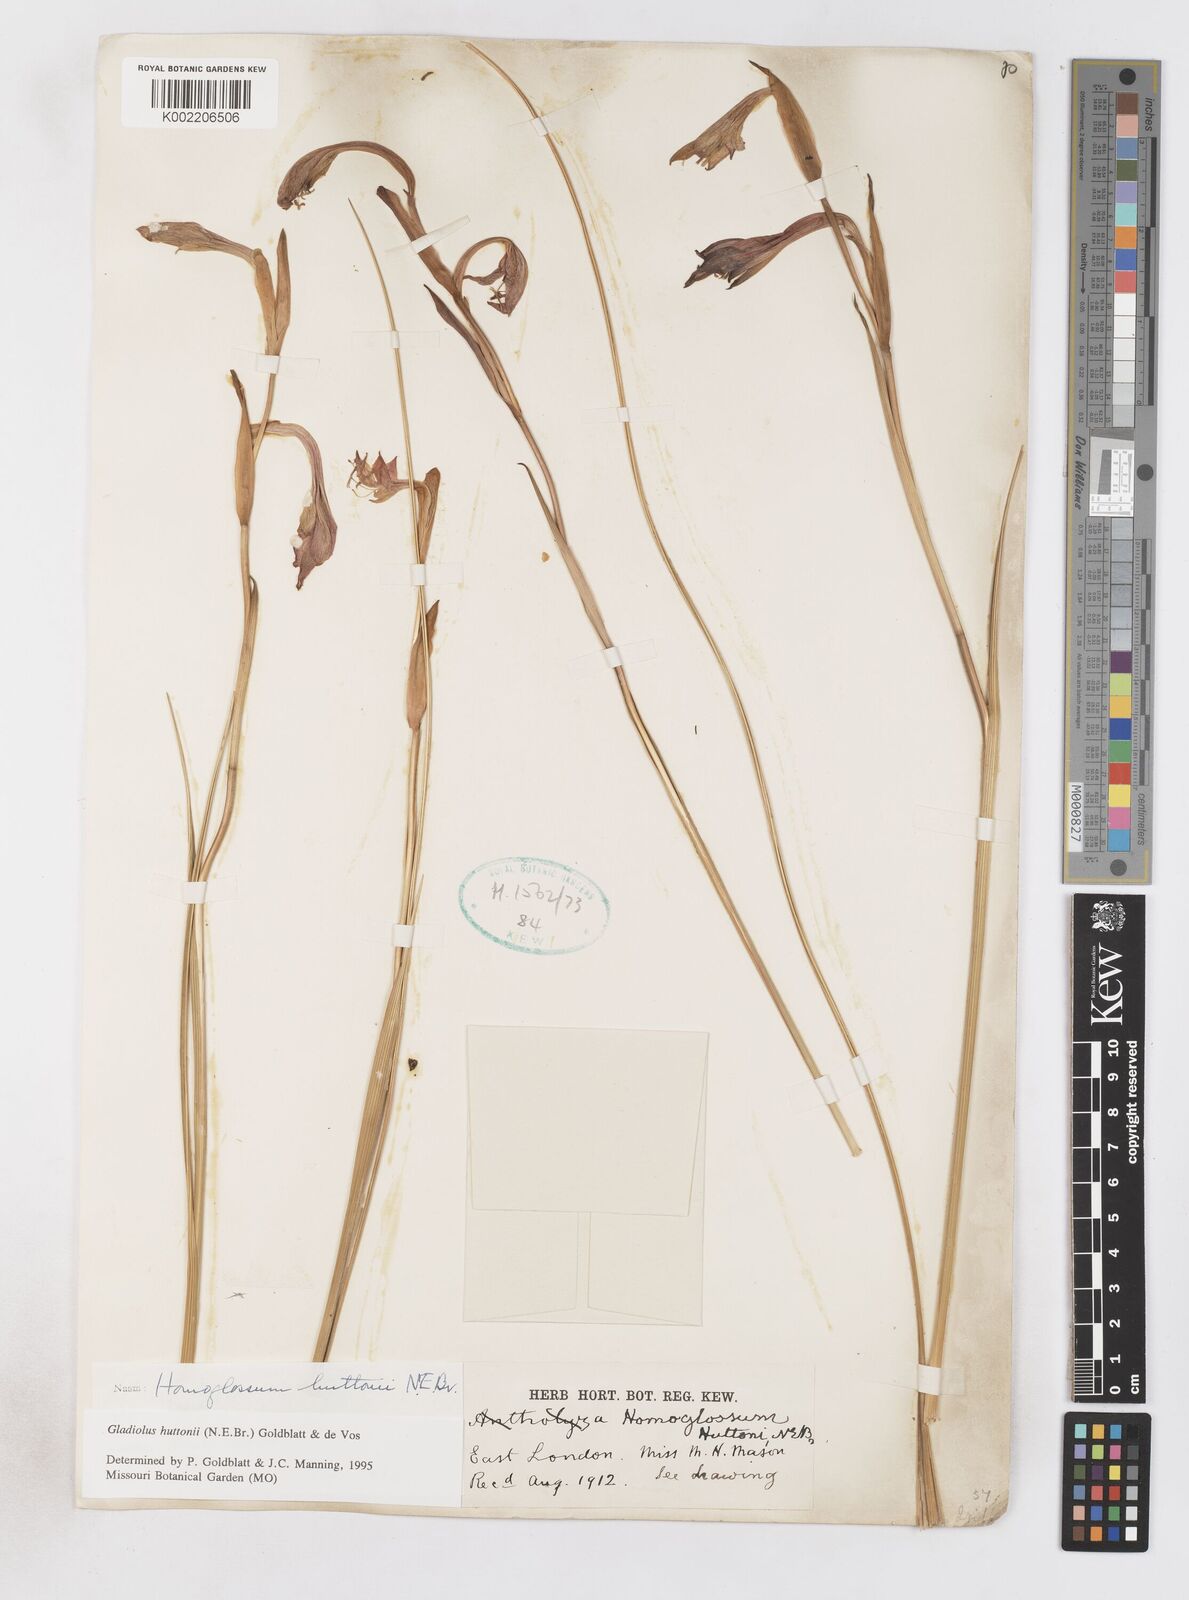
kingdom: Plantae
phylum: Tracheophyta
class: Liliopsida
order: Asparagales
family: Iridaceae
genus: Gladiolus
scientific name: Gladiolus huttonii
